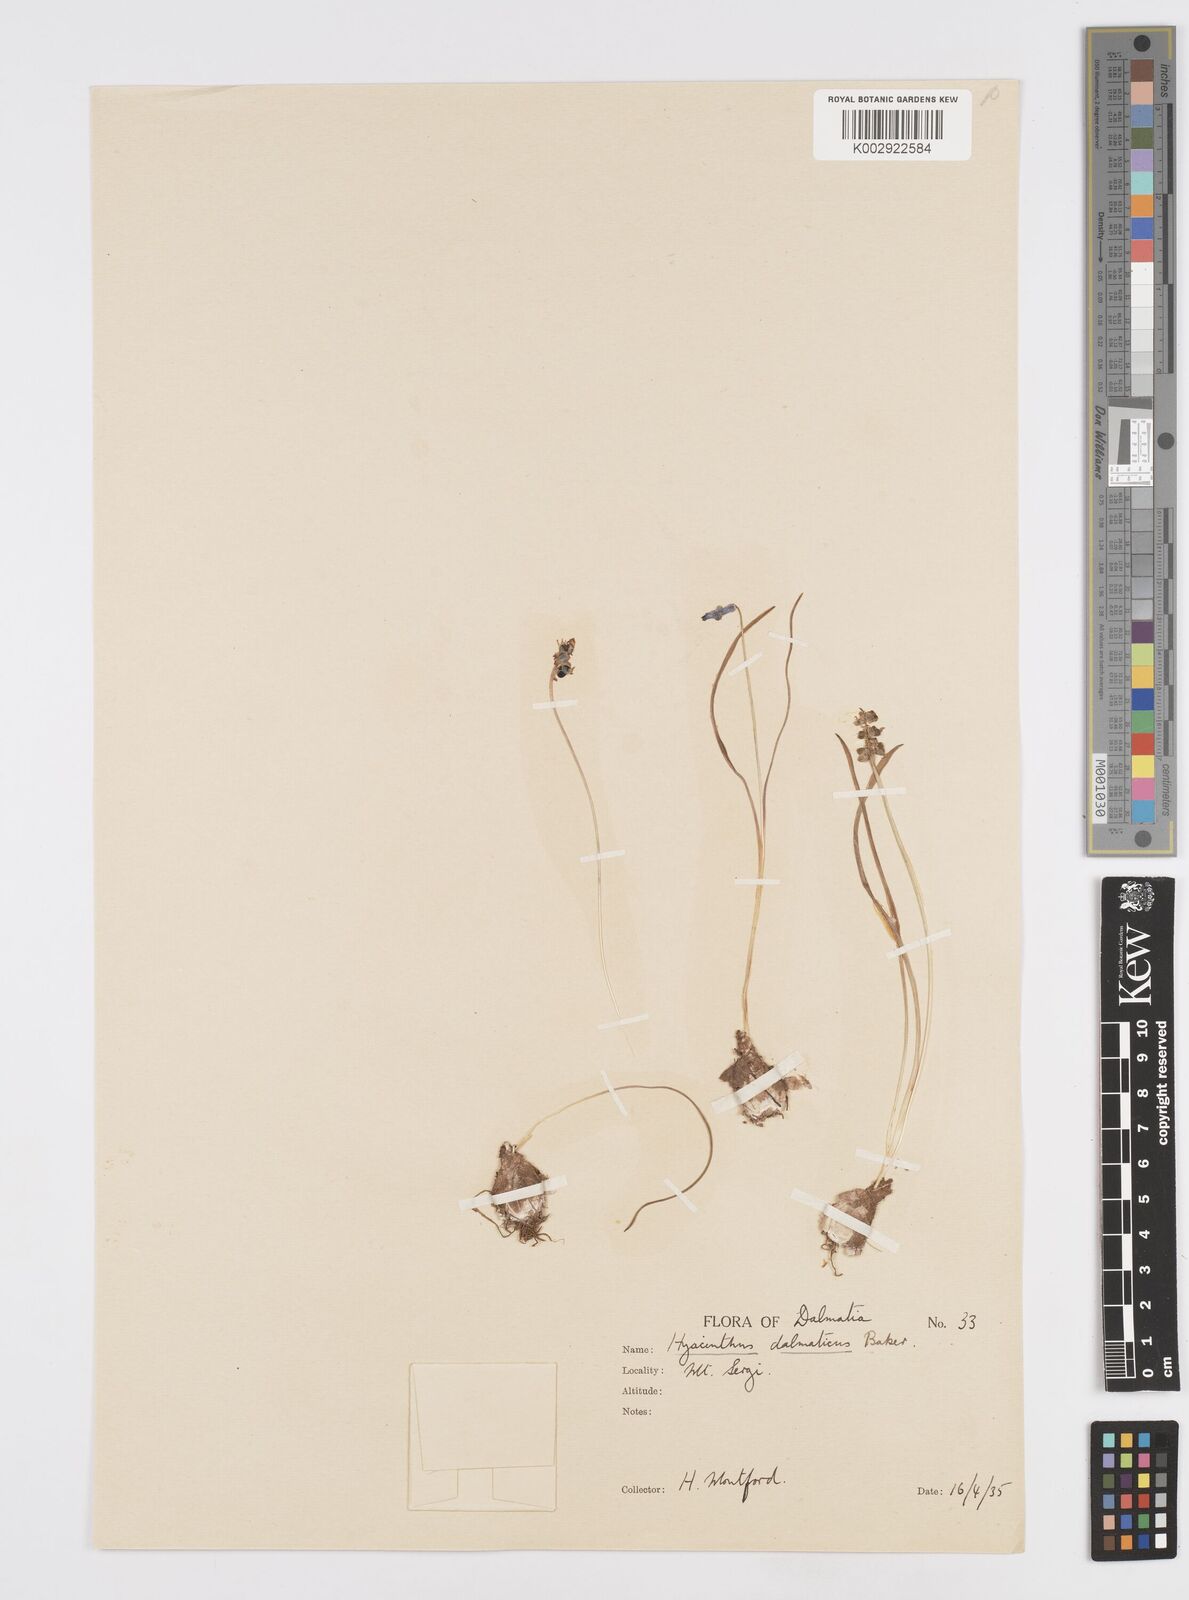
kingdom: Plantae
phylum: Tracheophyta
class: Liliopsida
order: Asparagales
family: Asparagaceae
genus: Hyacinthella
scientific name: Hyacinthella leucophaea
